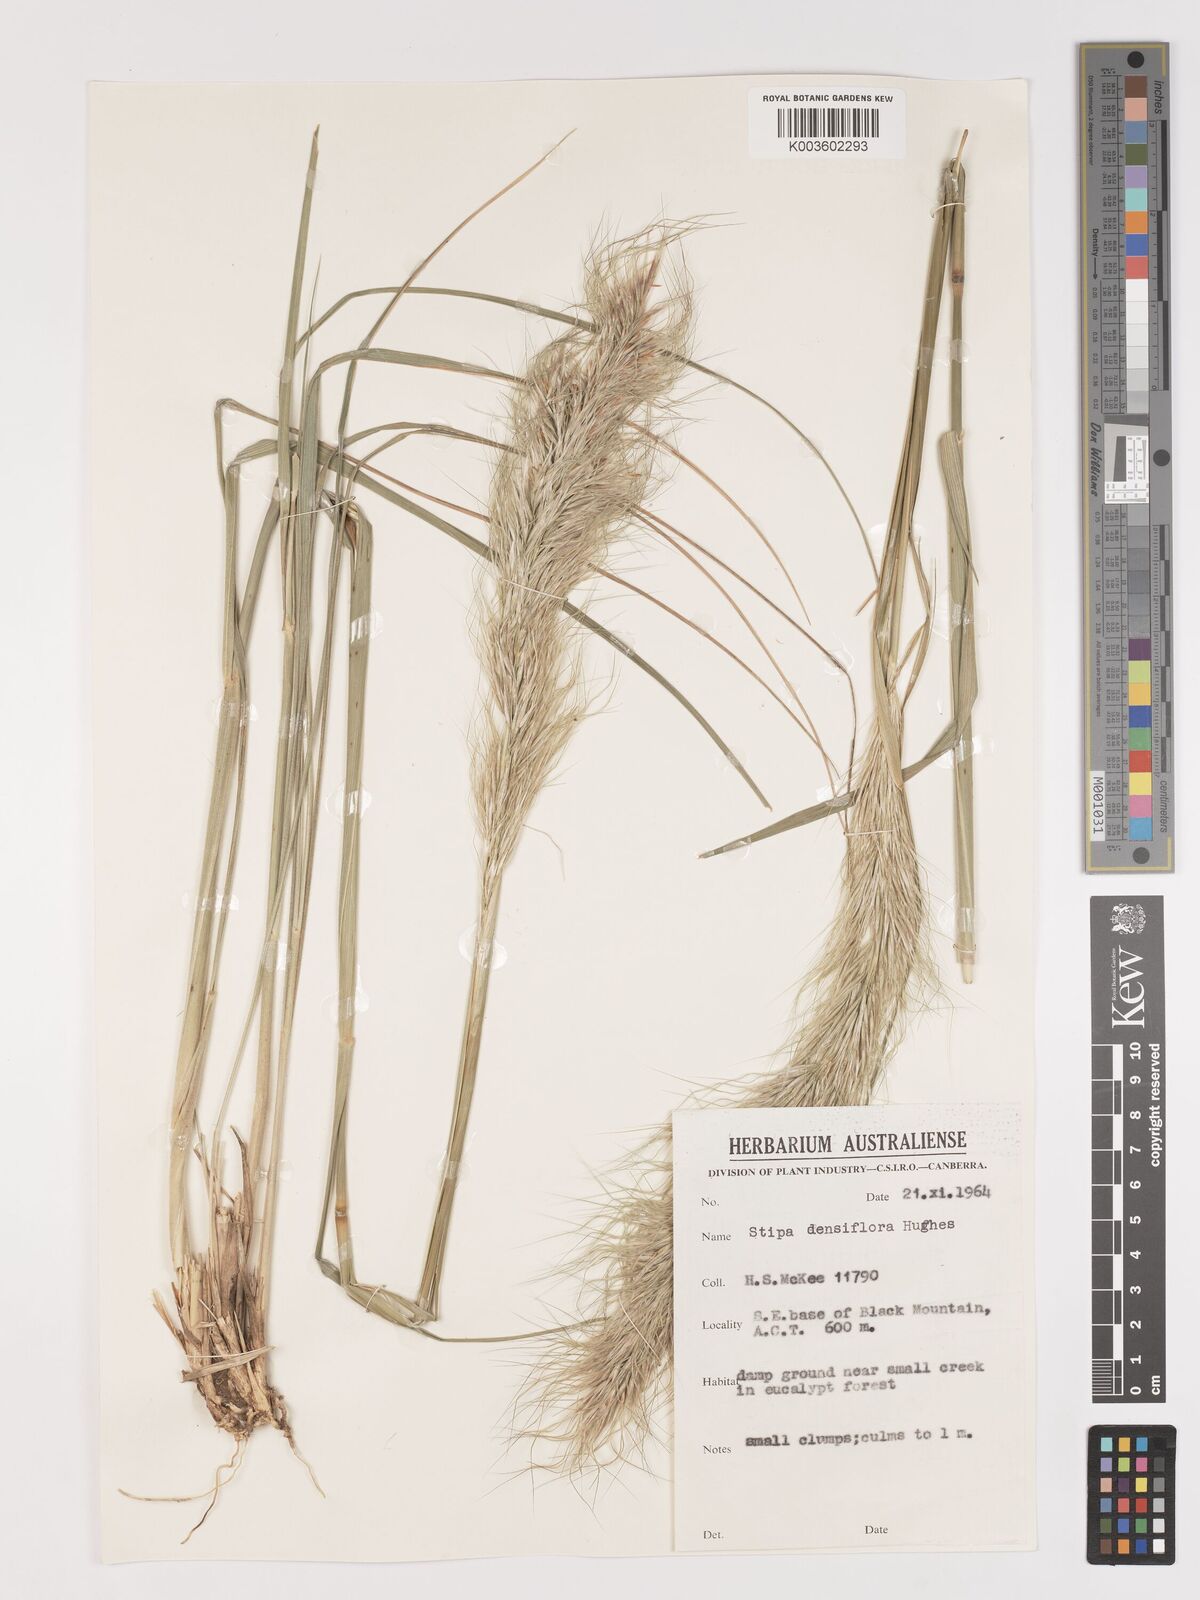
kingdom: Plantae
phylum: Tracheophyta
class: Liliopsida
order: Poales
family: Poaceae
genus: Stipa
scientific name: Stipa
